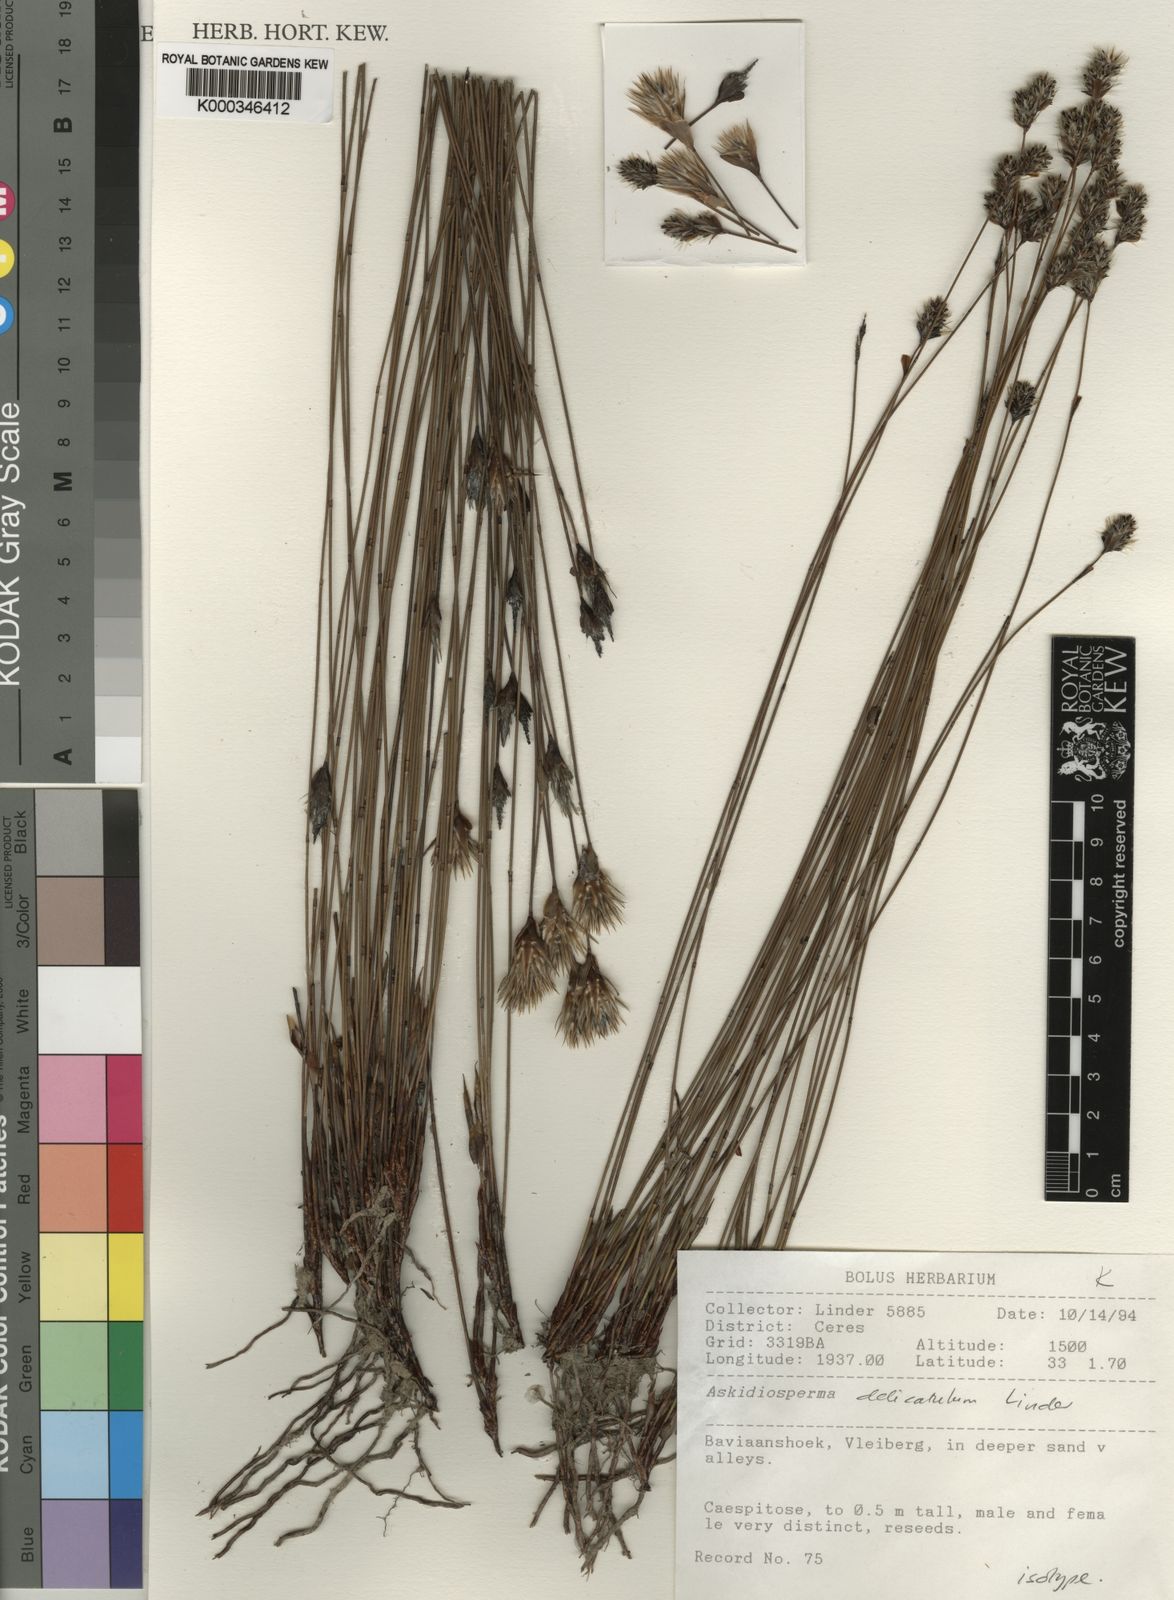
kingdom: Plantae
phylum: Tracheophyta
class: Liliopsida
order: Poales
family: Restionaceae
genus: Askidiosperma
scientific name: Askidiosperma delicatulum
